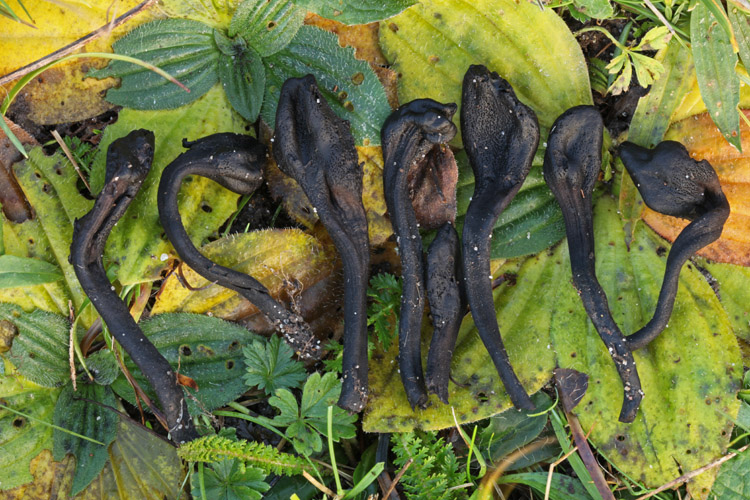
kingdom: Fungi
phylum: Ascomycota
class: Geoglossomycetes
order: Geoglossales
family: Geoglossaceae
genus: Trichoglossum
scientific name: Trichoglossum hirsutum
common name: håret jordtunge
